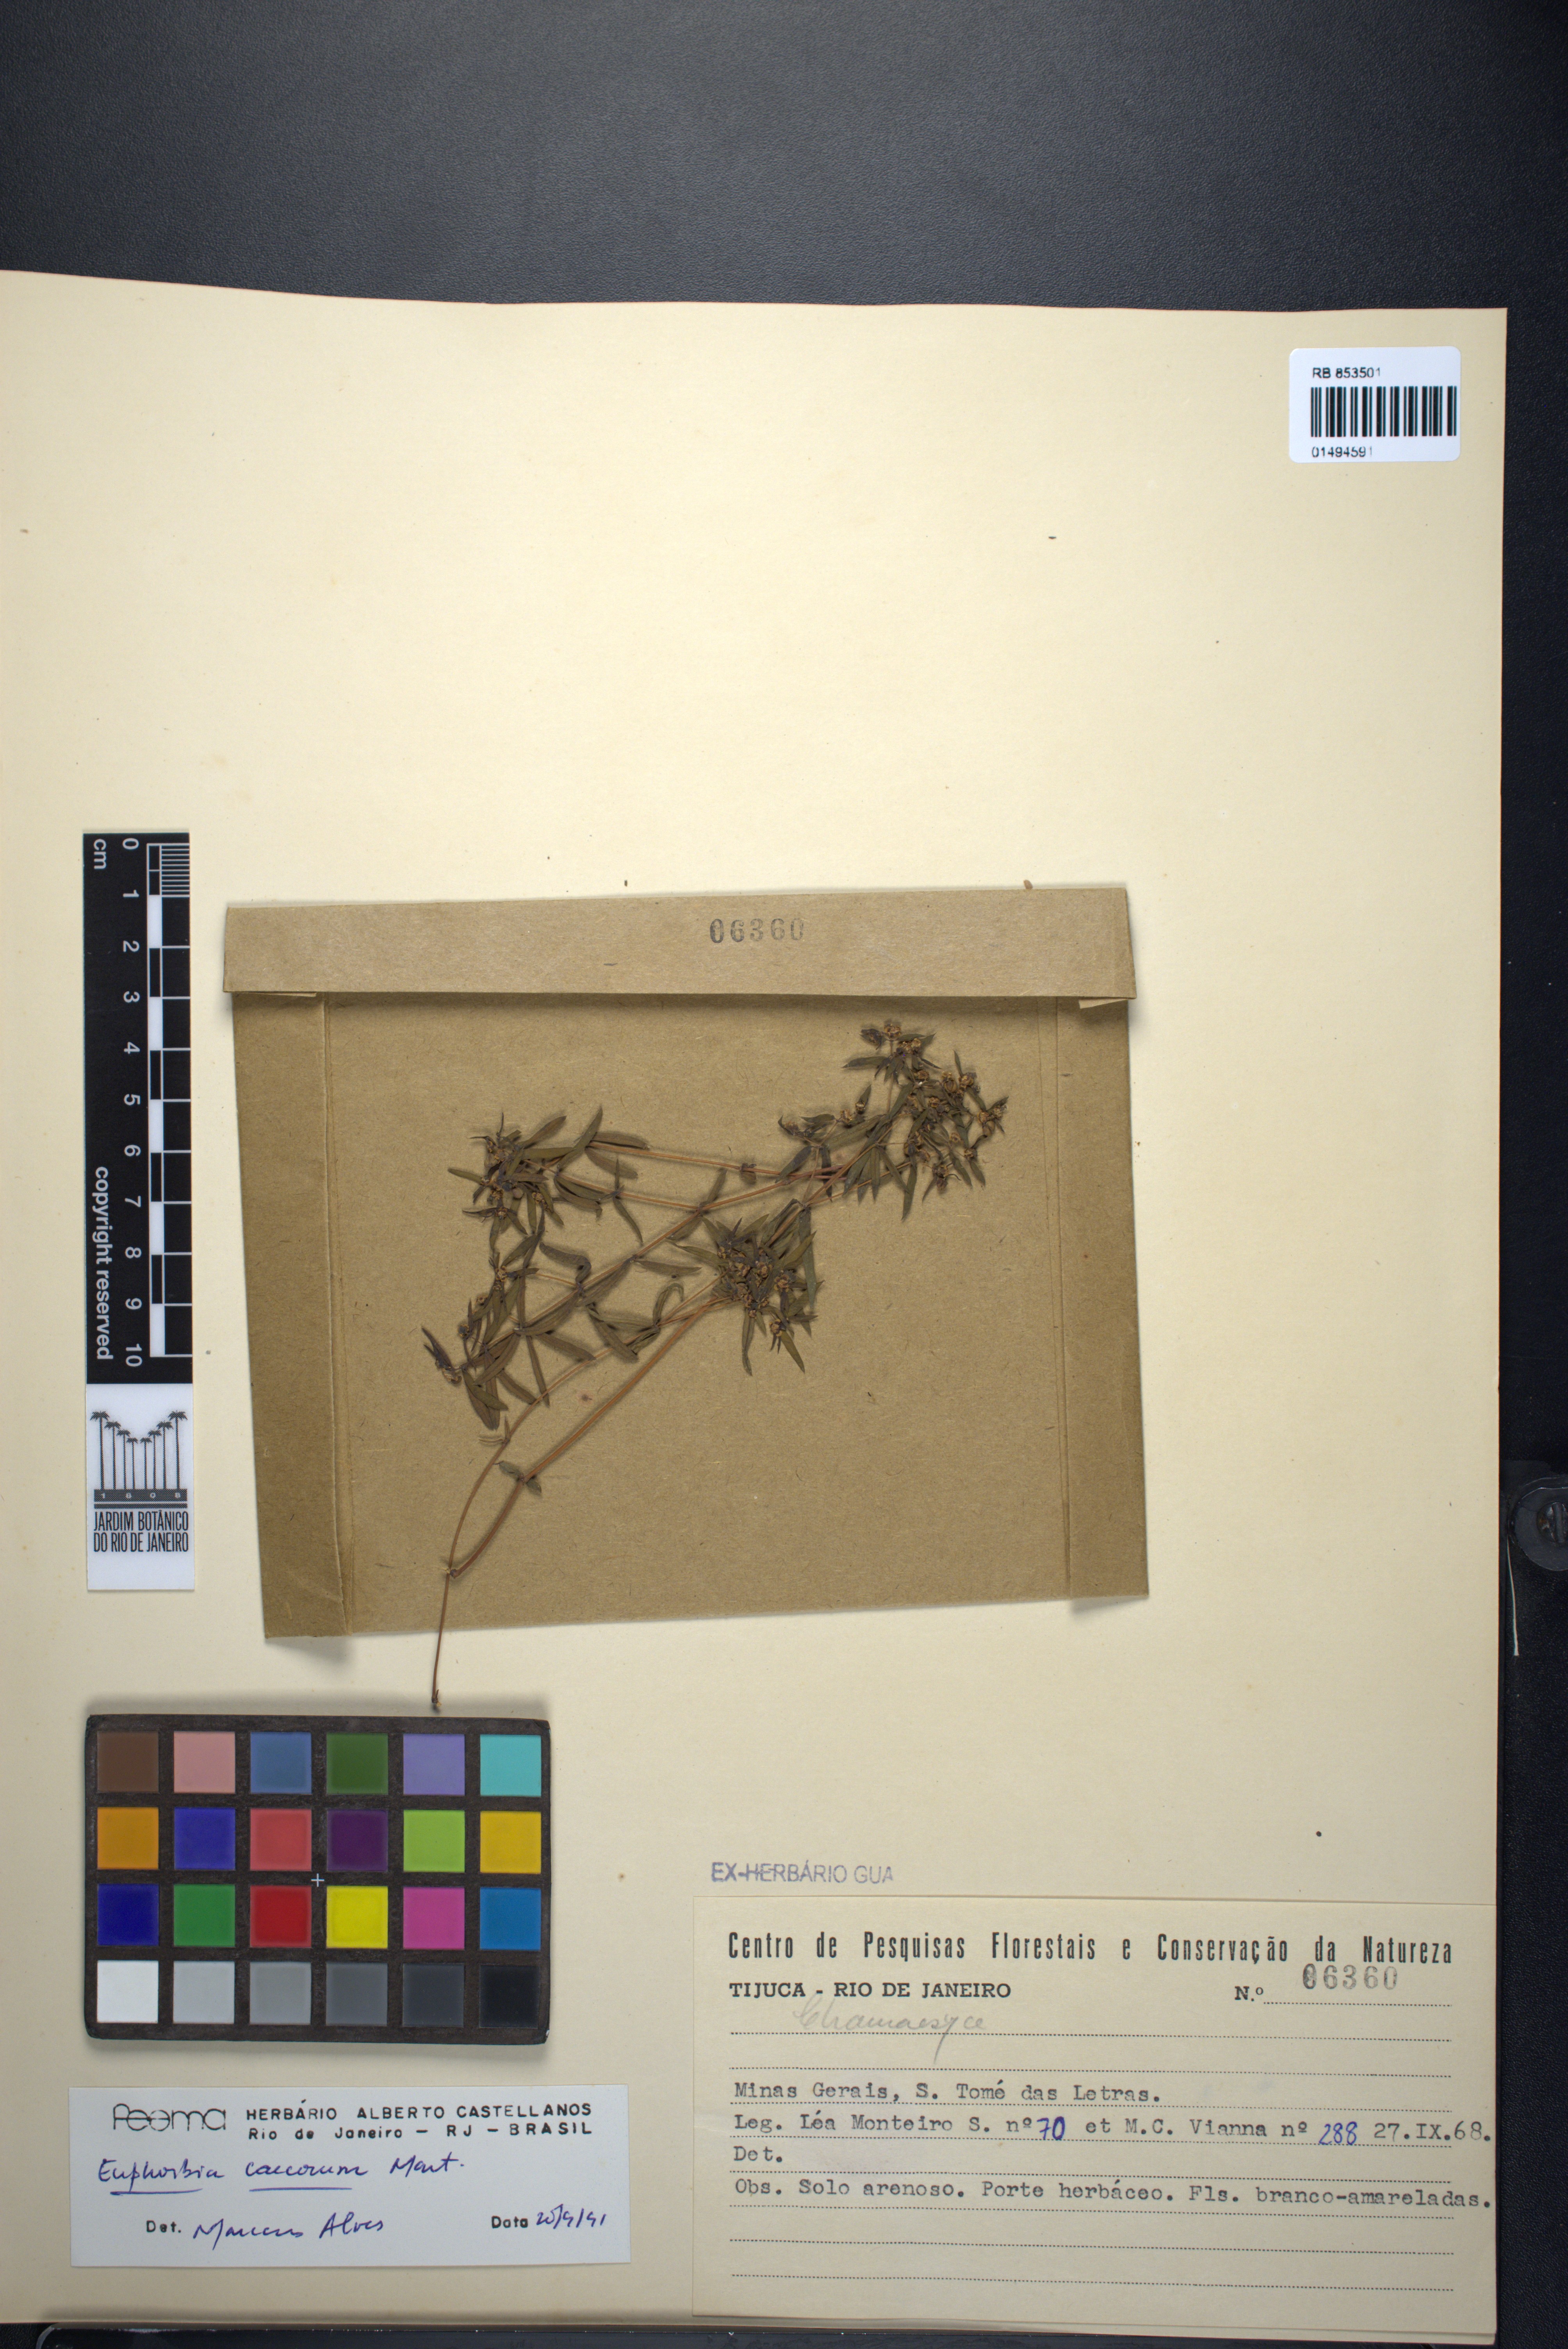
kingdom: Plantae
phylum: Tracheophyta
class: Magnoliopsida
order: Malpighiales
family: Euphorbiaceae
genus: Euphorbia
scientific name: Euphorbia potentilloides
